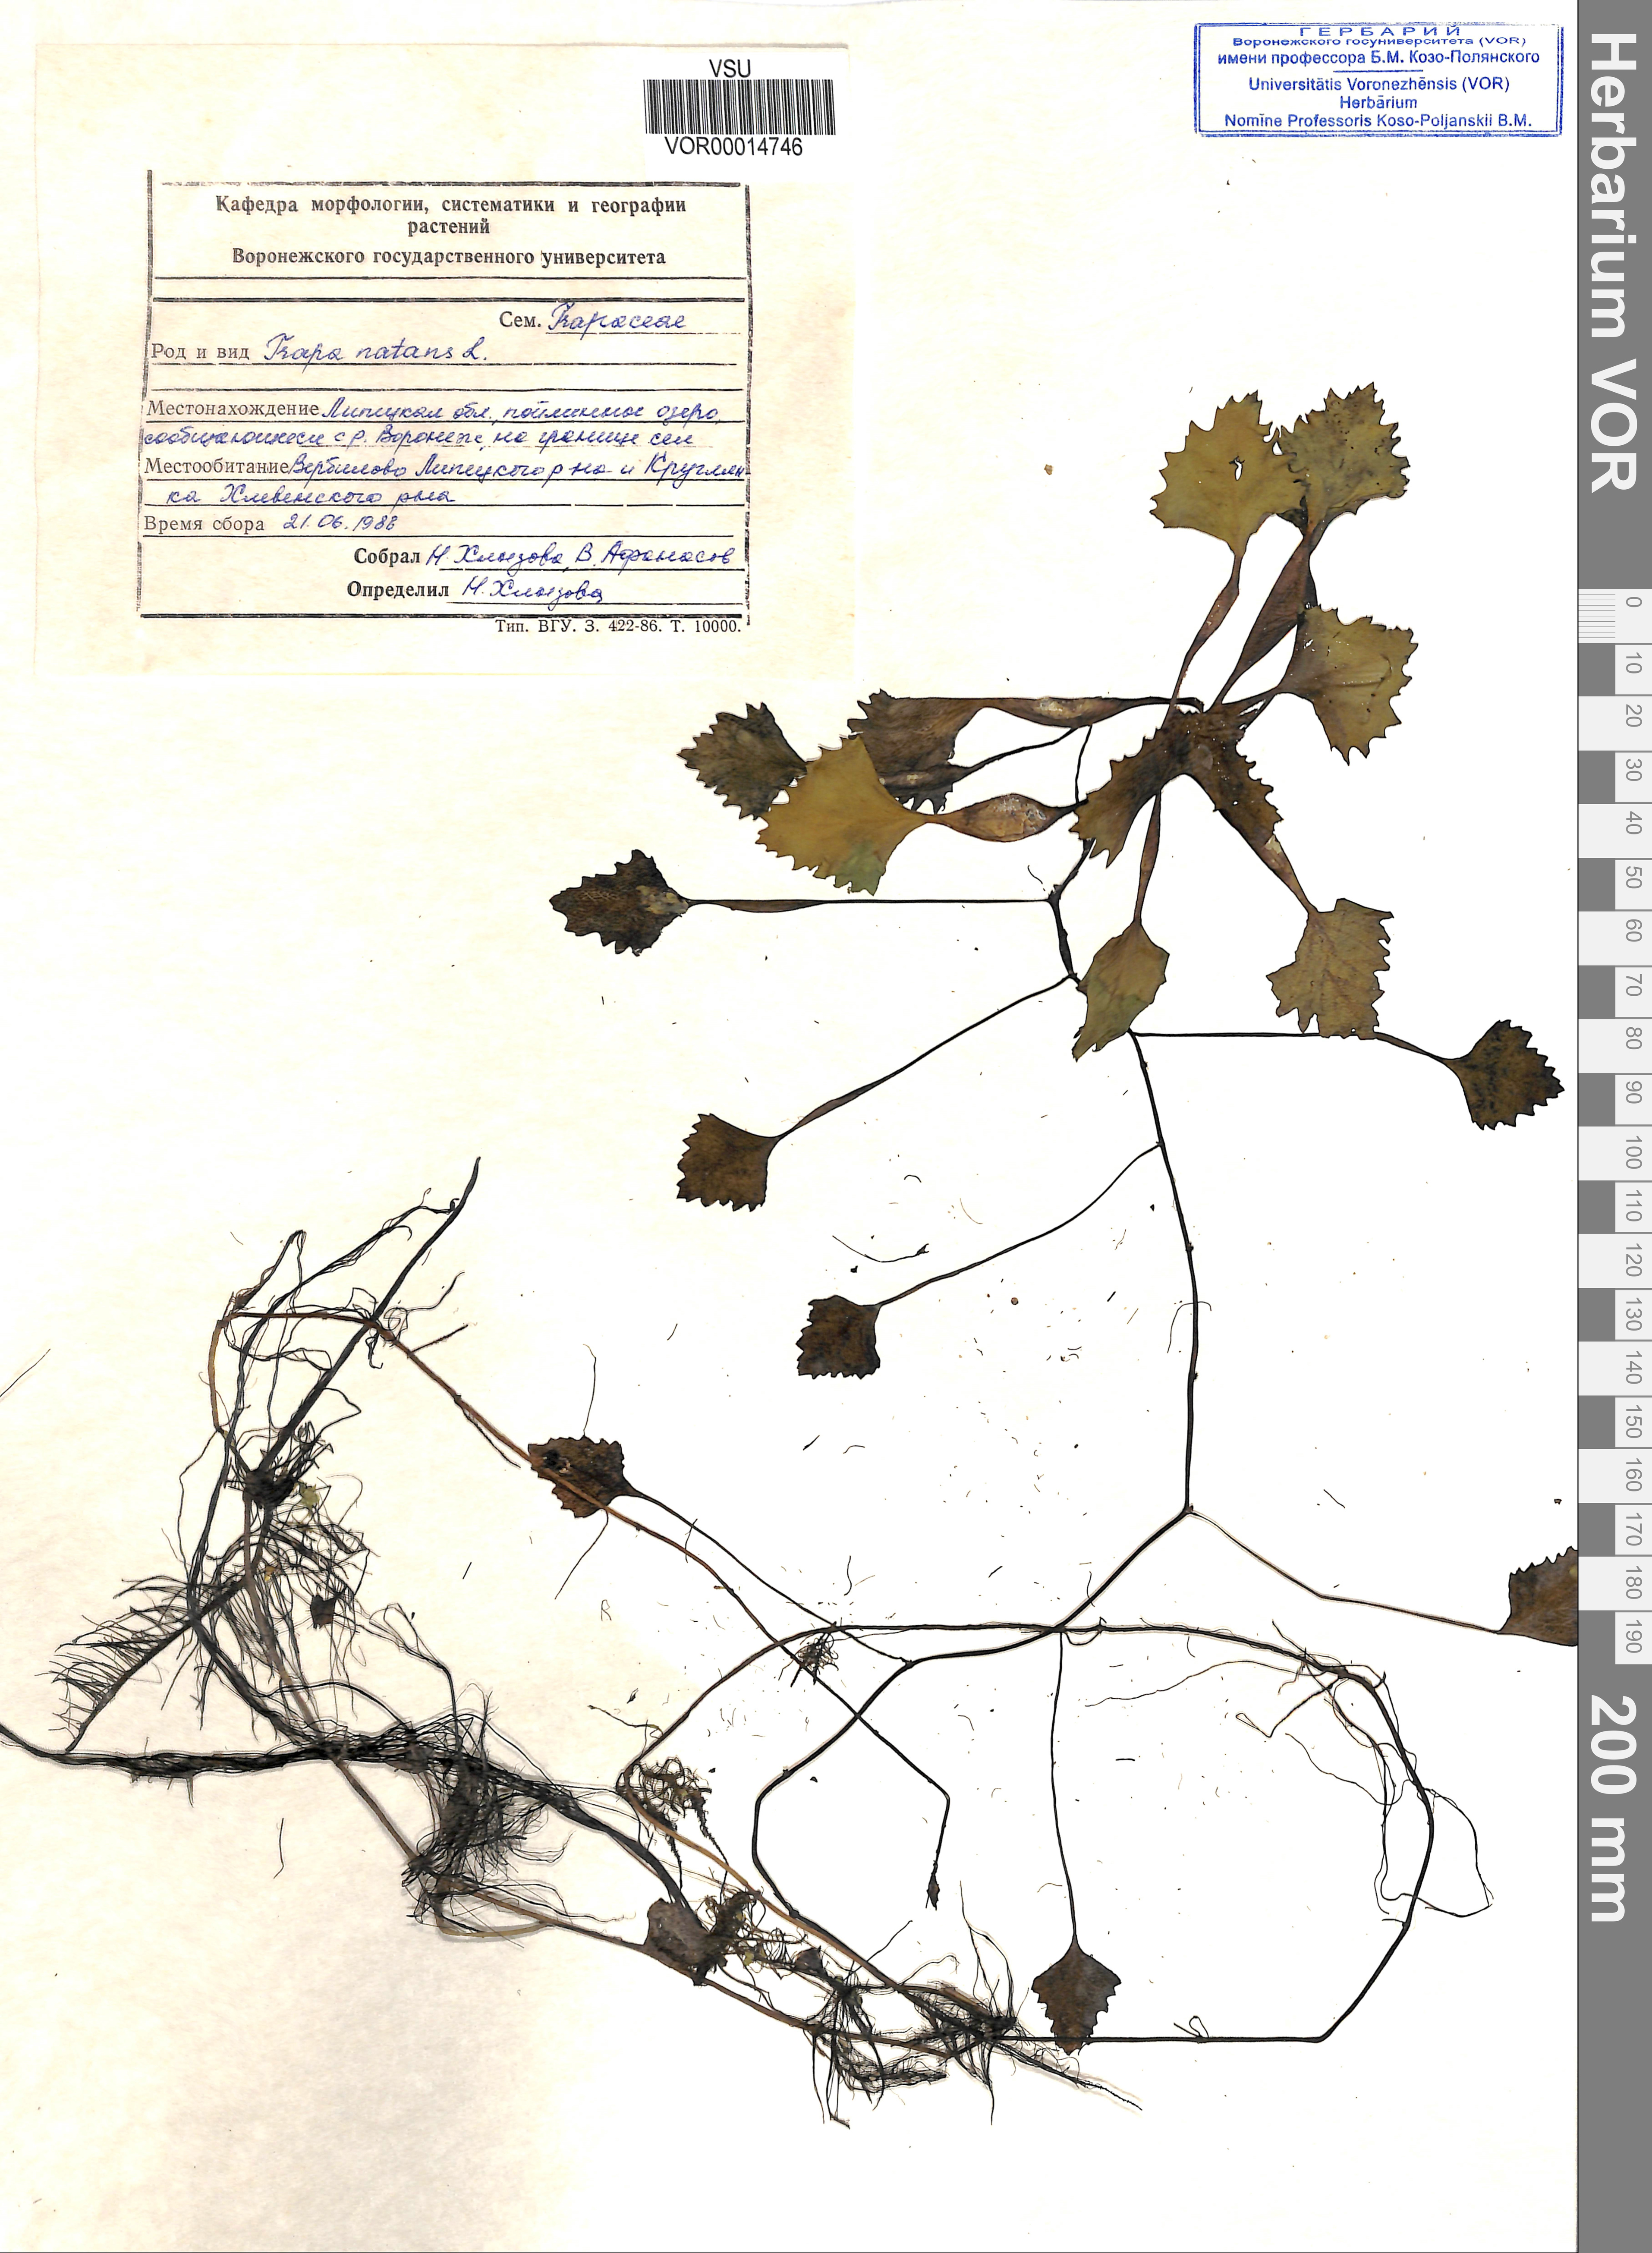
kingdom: Plantae
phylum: Tracheophyta
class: Magnoliopsida
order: Myrtales
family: Lythraceae
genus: Trapa
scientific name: Trapa natans
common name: Water chestnut
